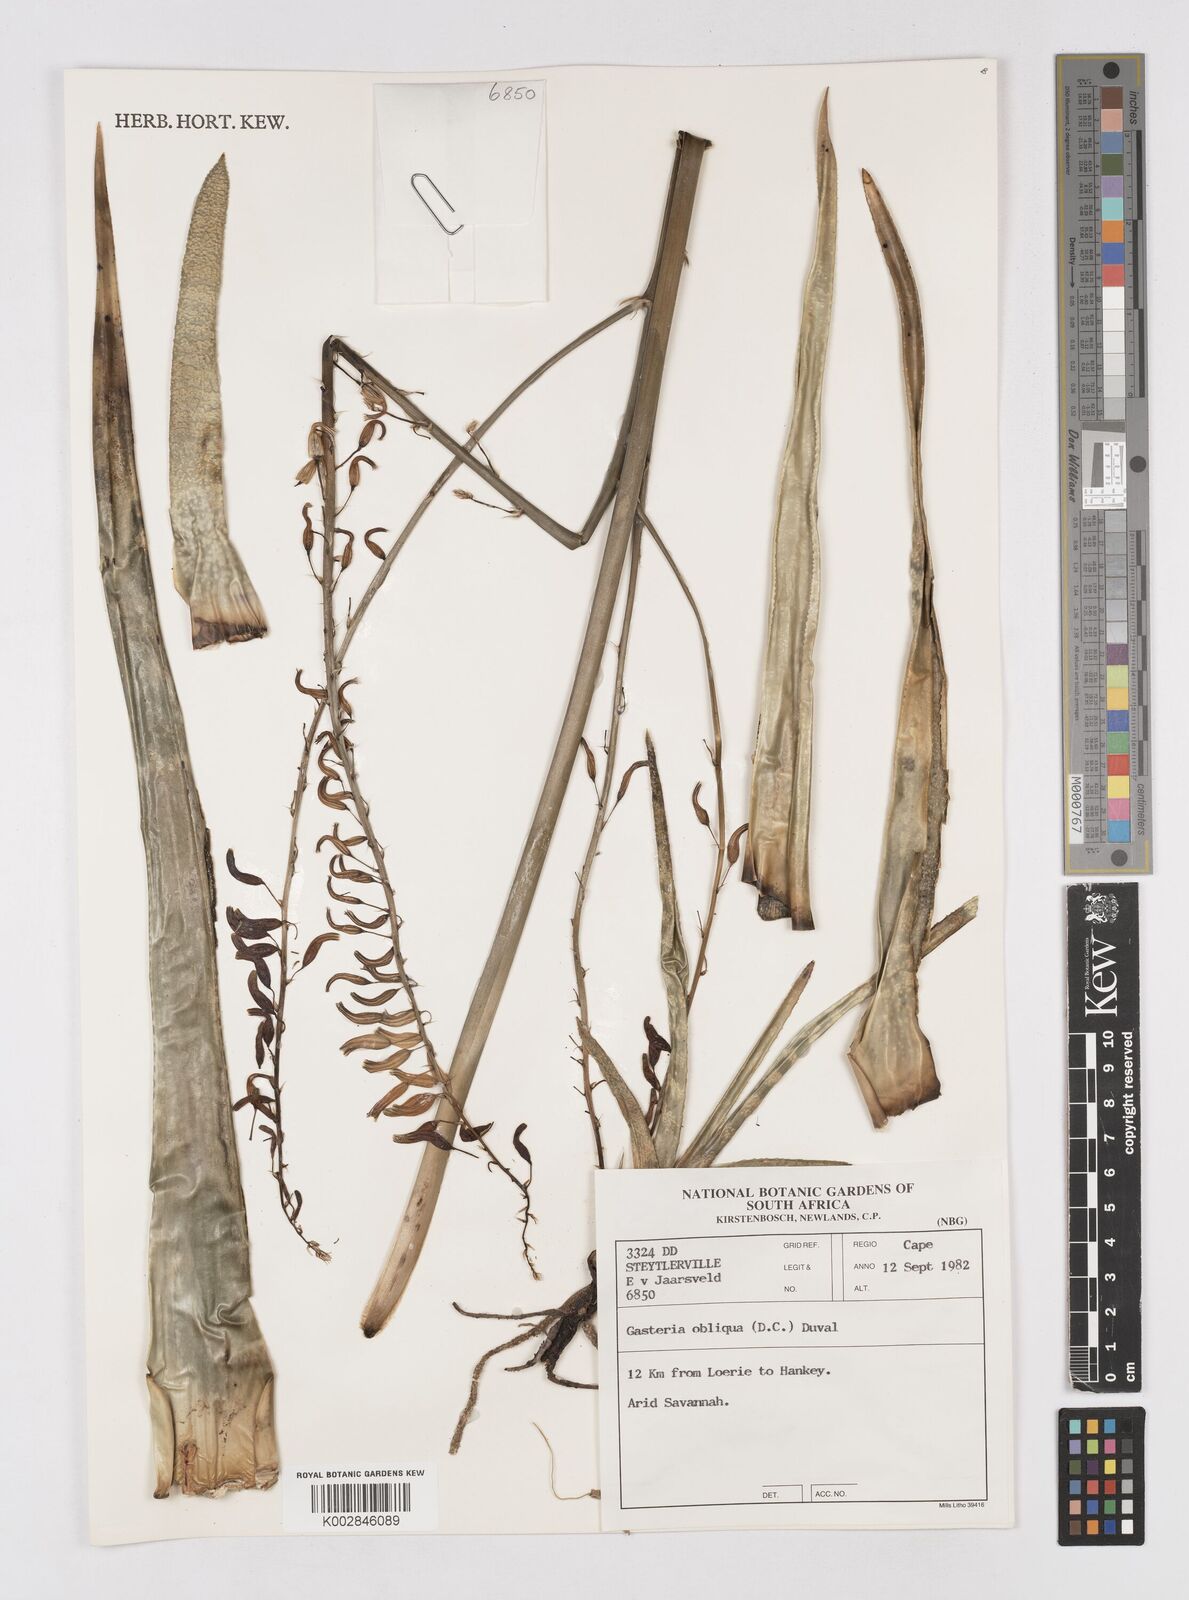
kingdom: Plantae
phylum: Tracheophyta
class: Liliopsida
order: Asparagales
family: Asphodelaceae
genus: Gasteria
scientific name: Gasteria obliqua
